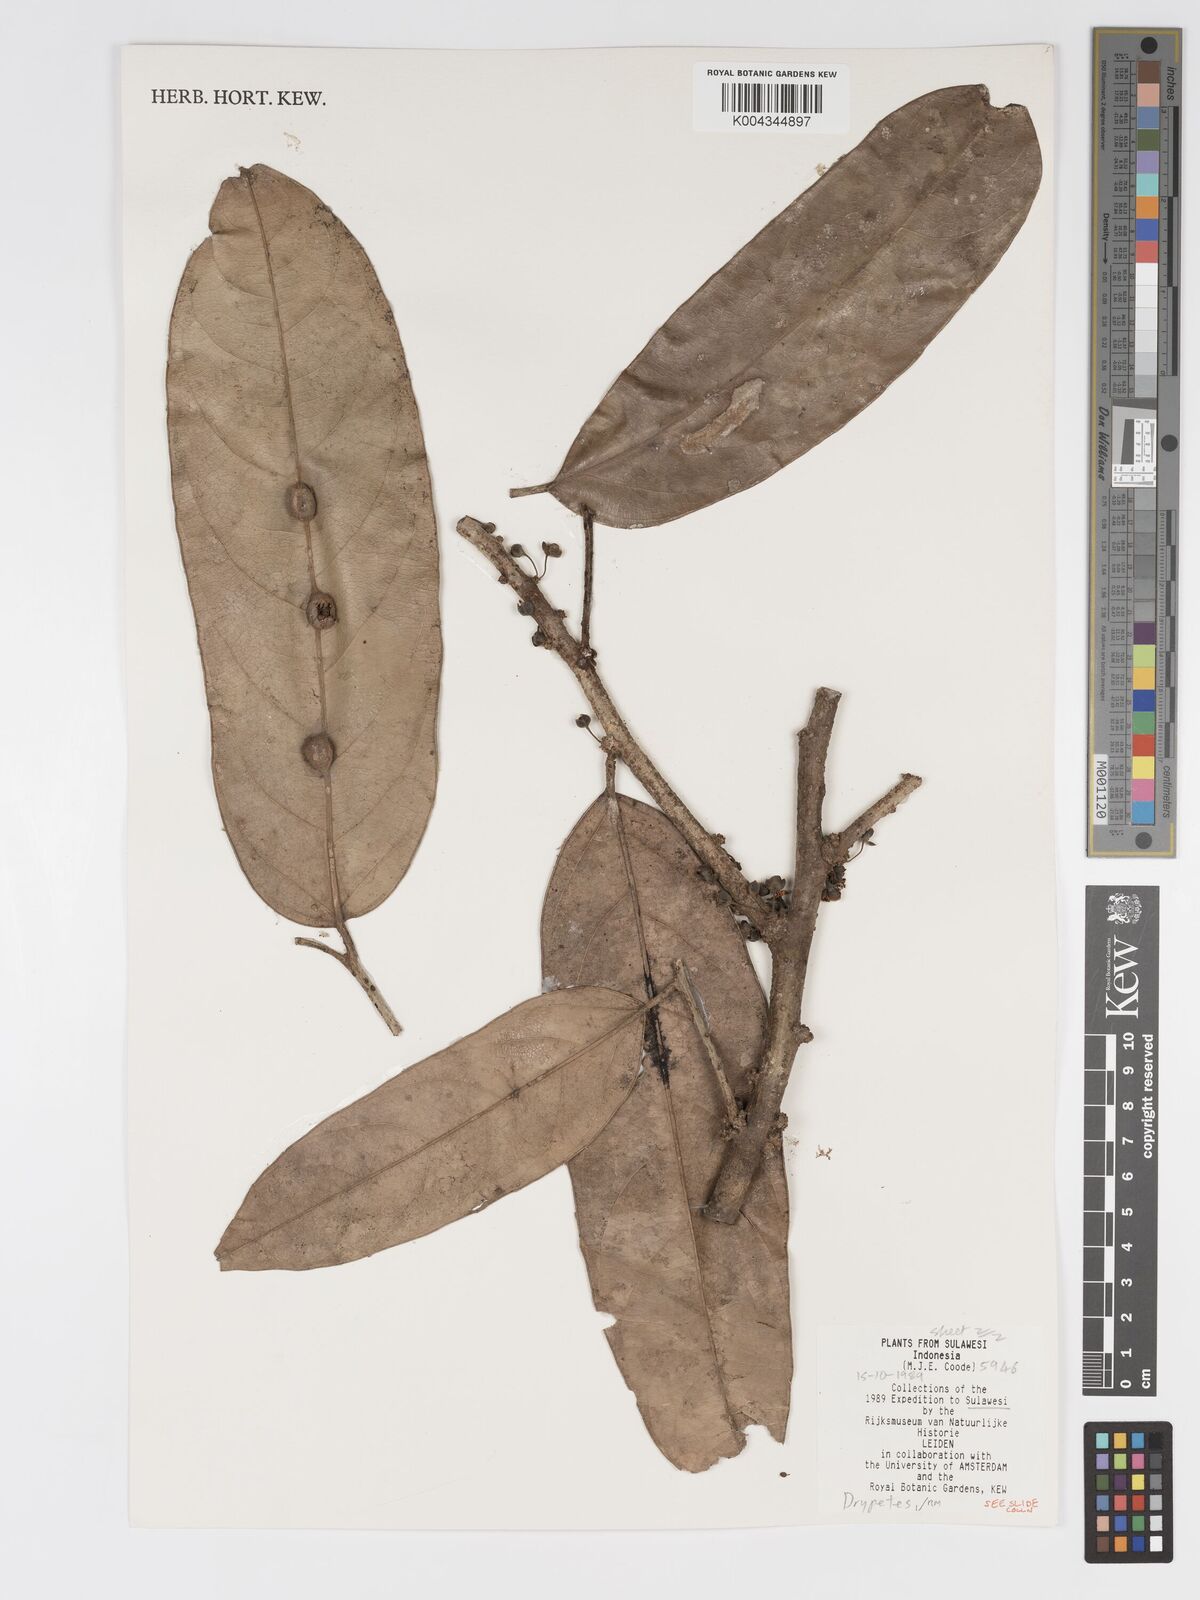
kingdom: Plantae
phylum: Tracheophyta
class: Magnoliopsida
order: Malpighiales
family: Putranjivaceae
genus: Drypetes
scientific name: Drypetes
